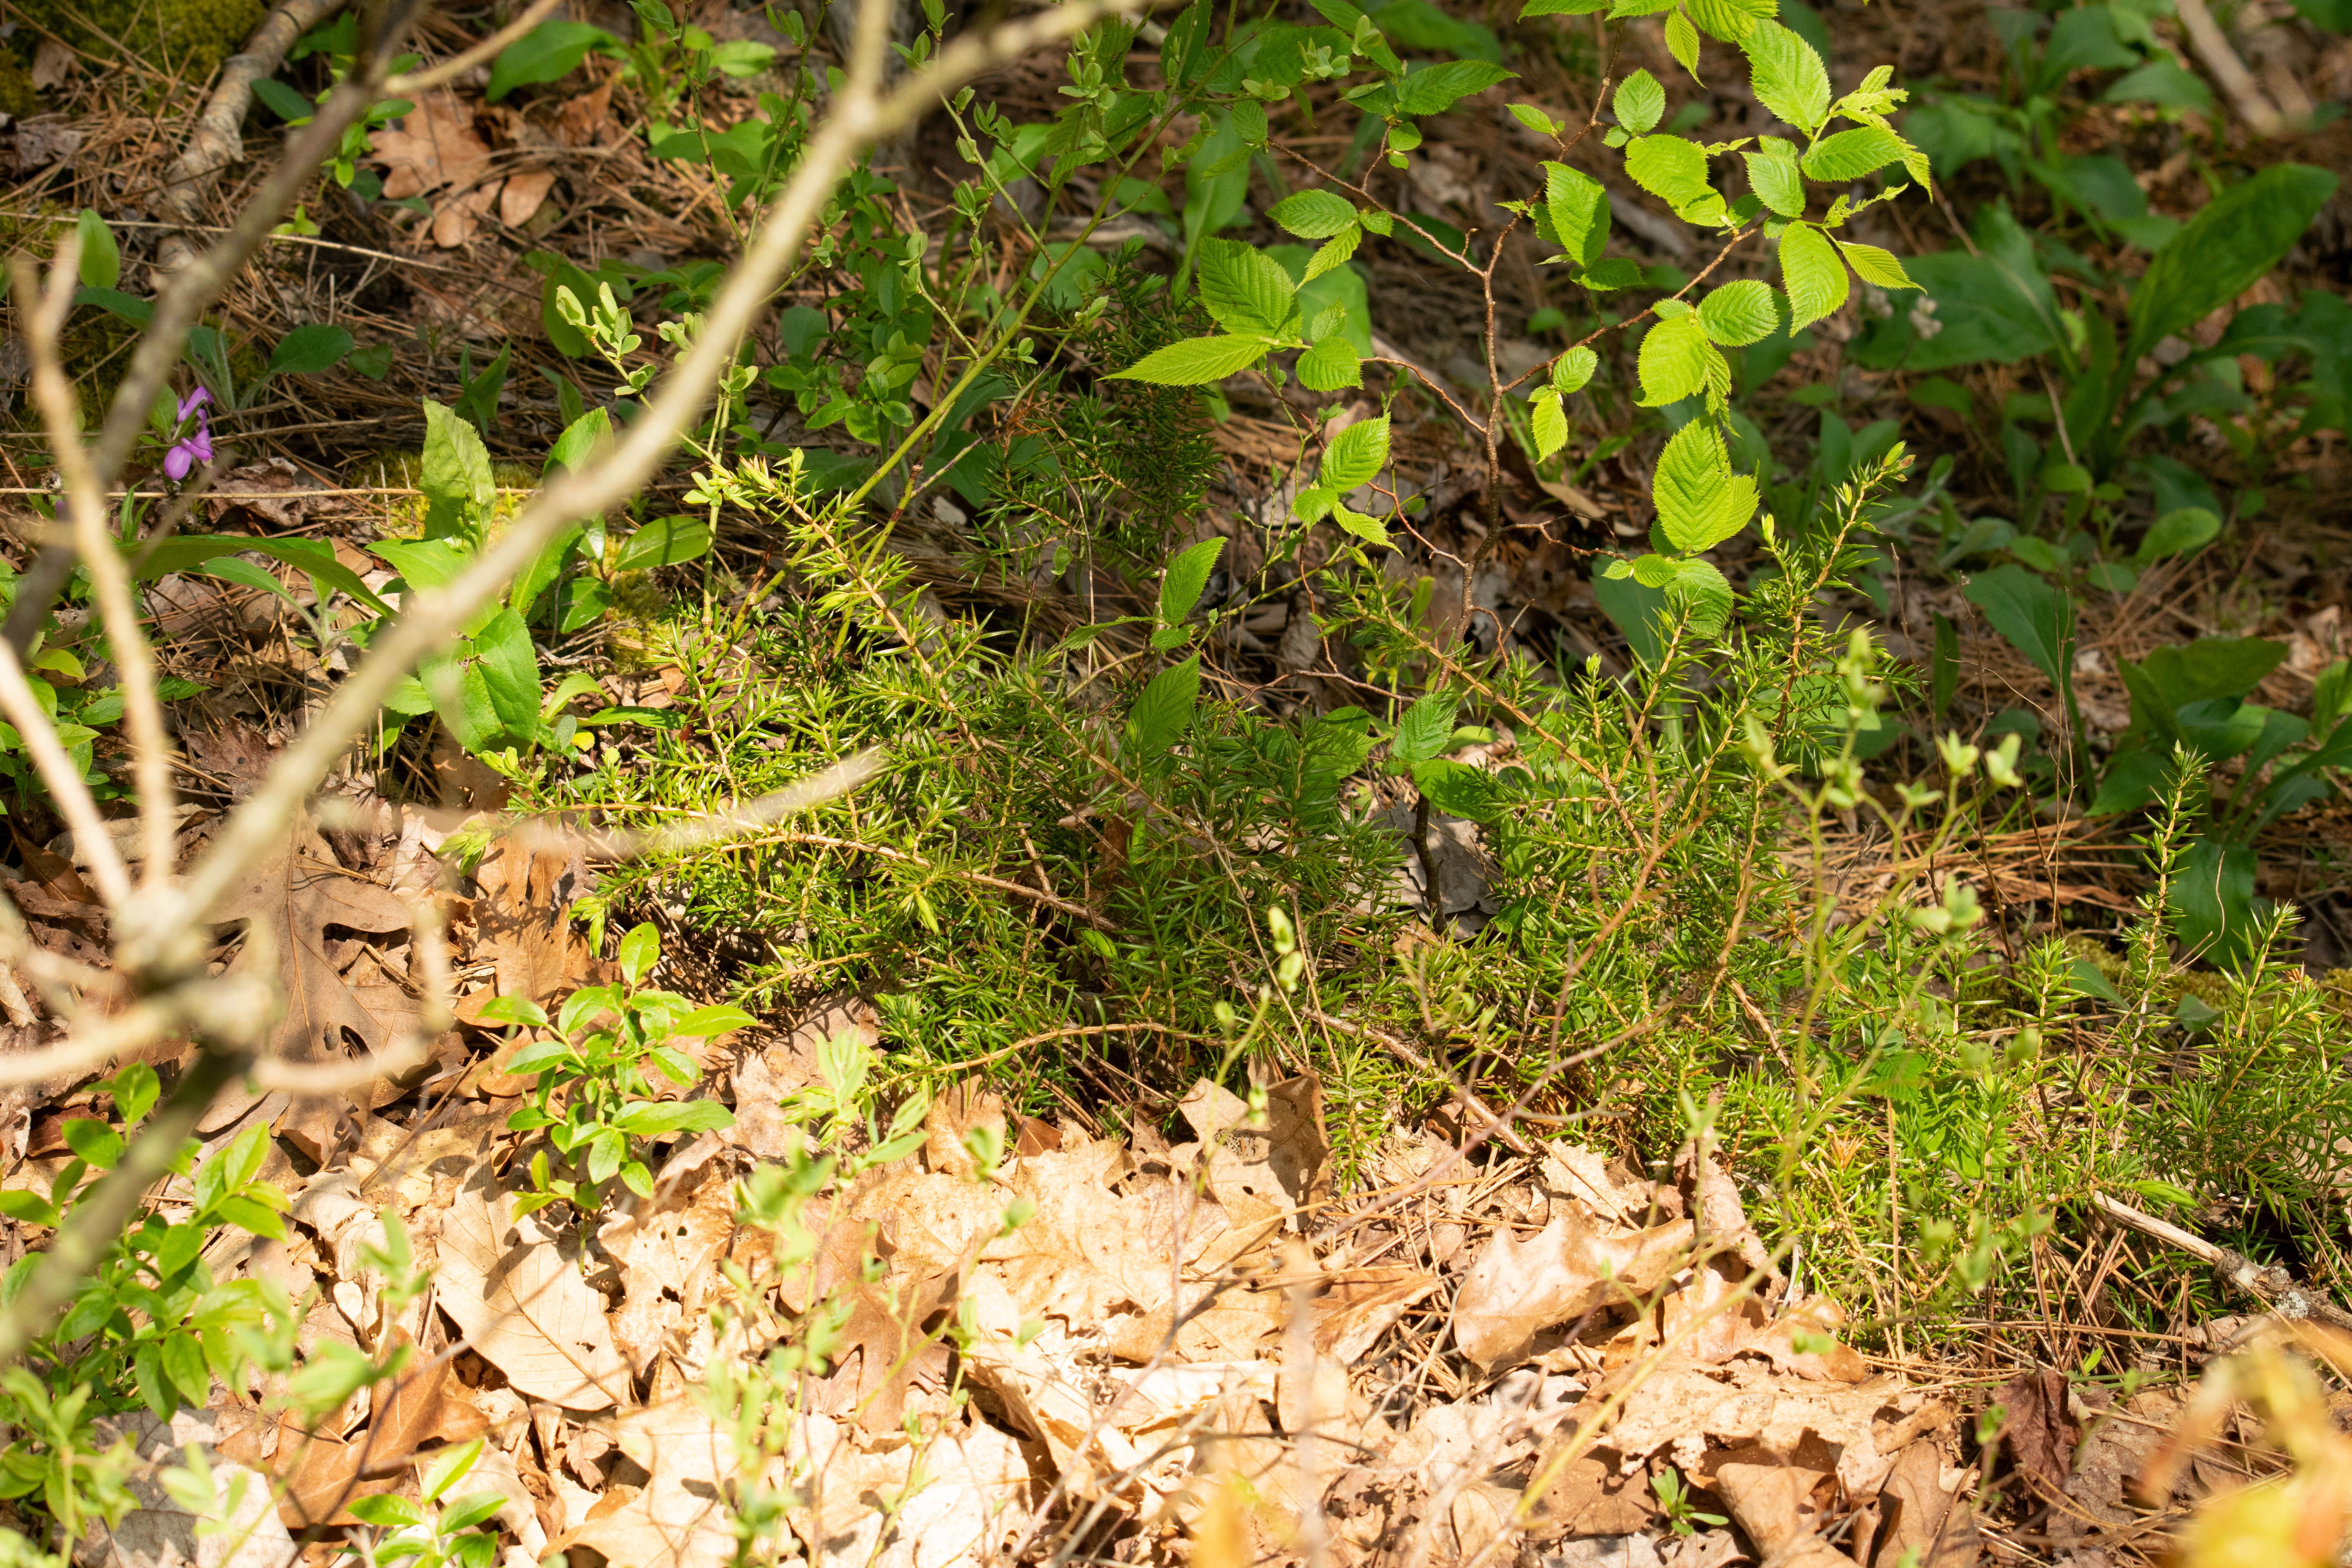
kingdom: Plantae
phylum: Tracheophyta
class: Pinopsida
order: Pinales
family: Cupressaceae
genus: Juniperus
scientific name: Juniperus communis
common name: Common juniper
